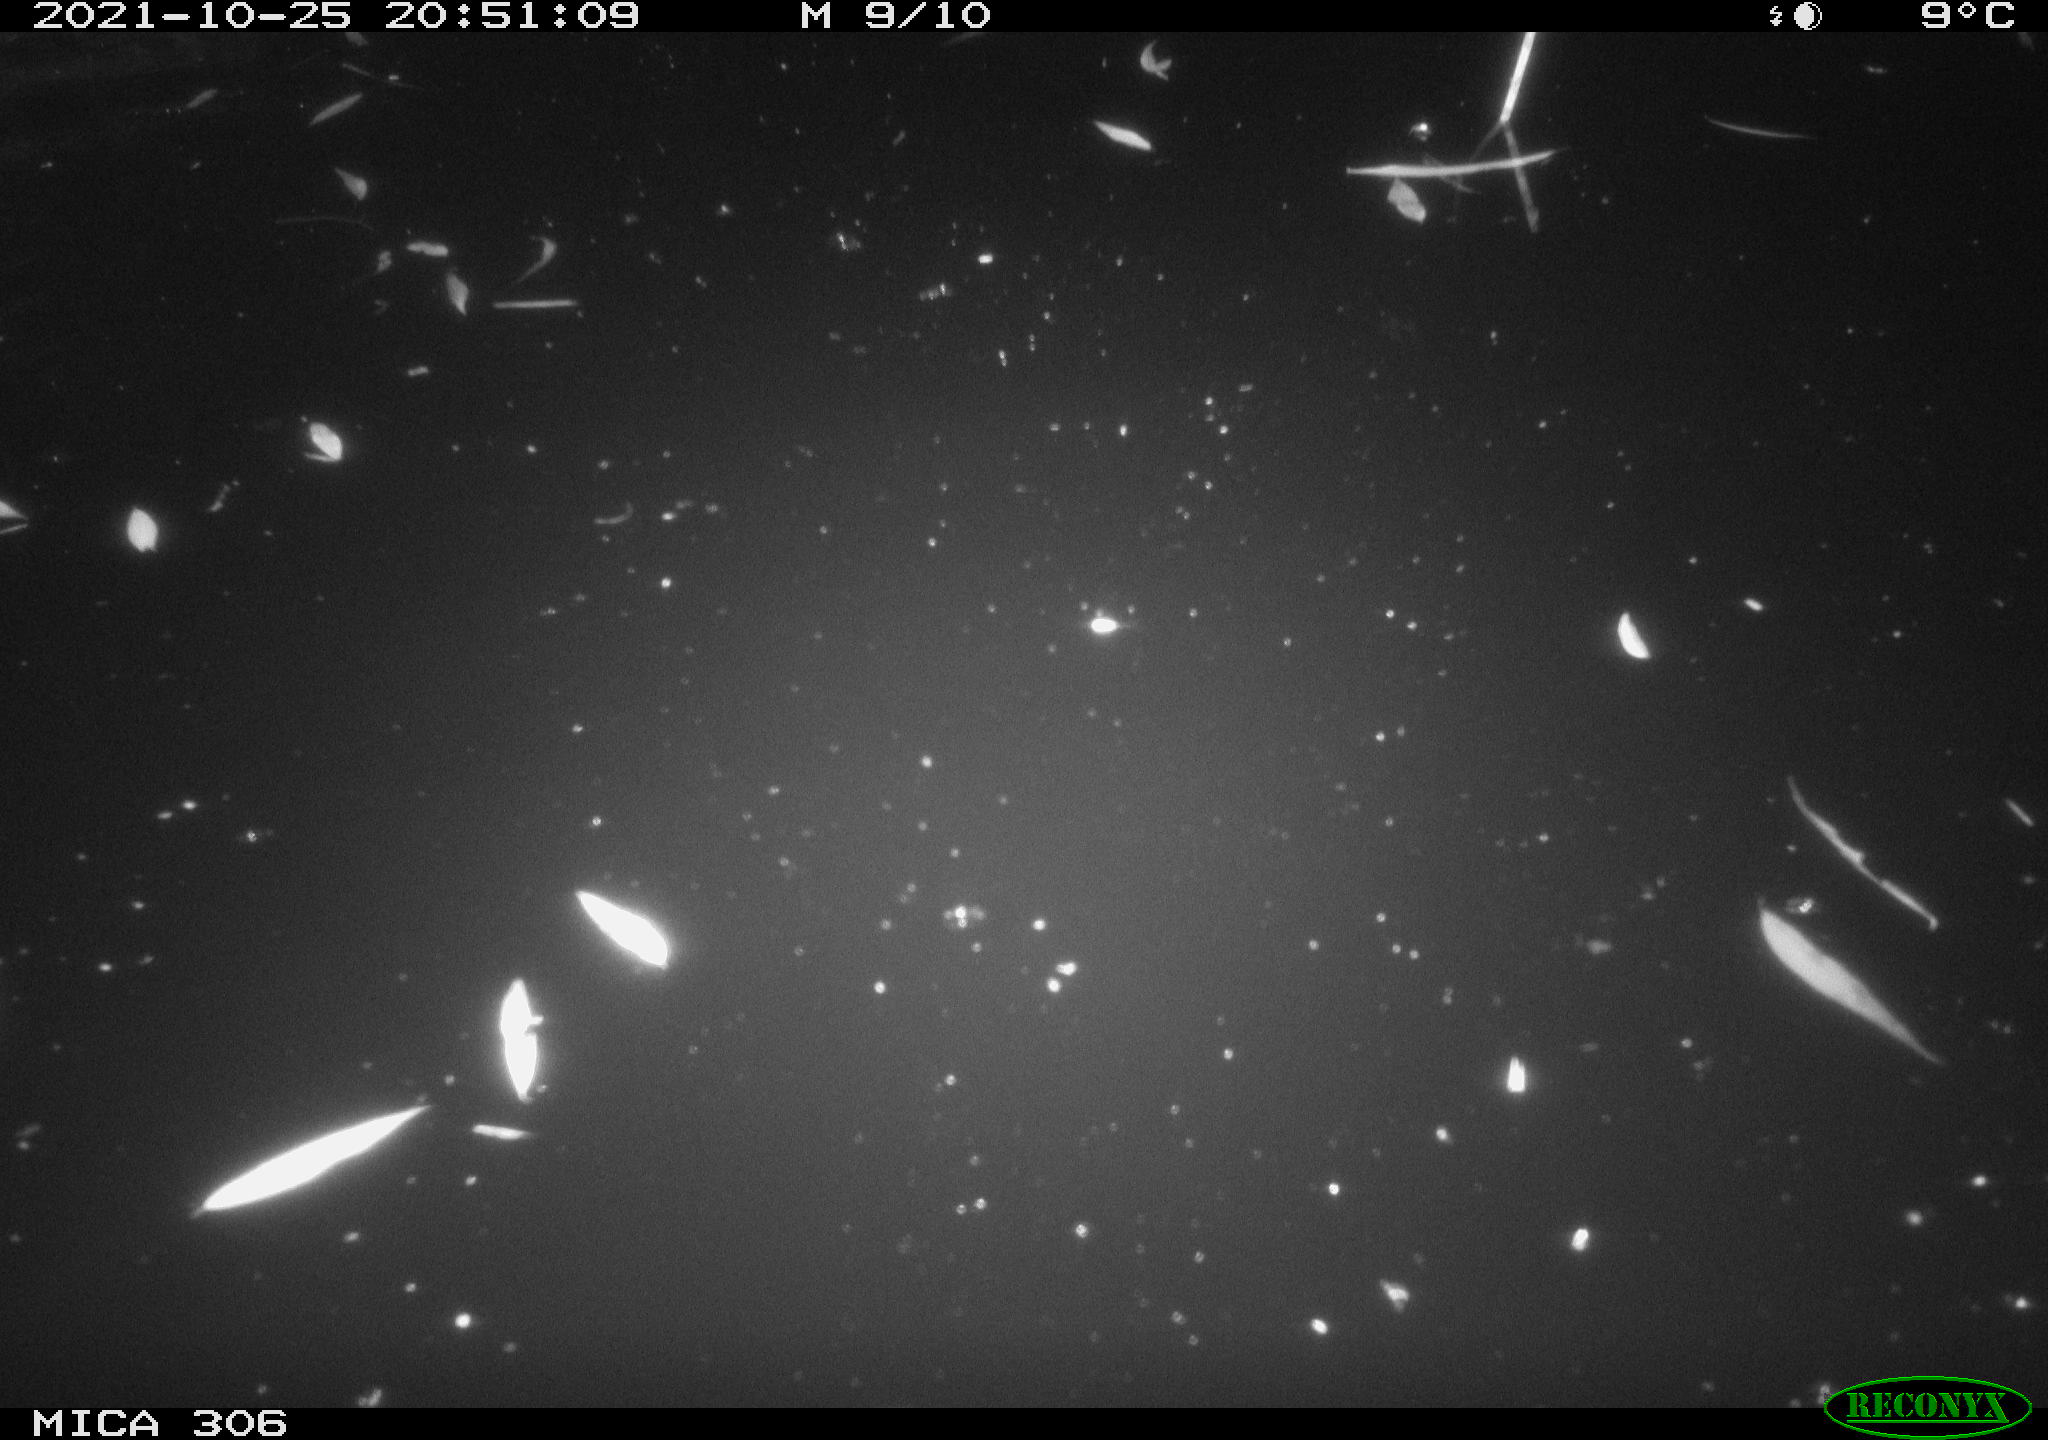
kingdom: Animalia
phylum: Chordata
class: Mammalia
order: Rodentia
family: Cricetidae
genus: Ondatra
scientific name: Ondatra zibethicus
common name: Muskrat
